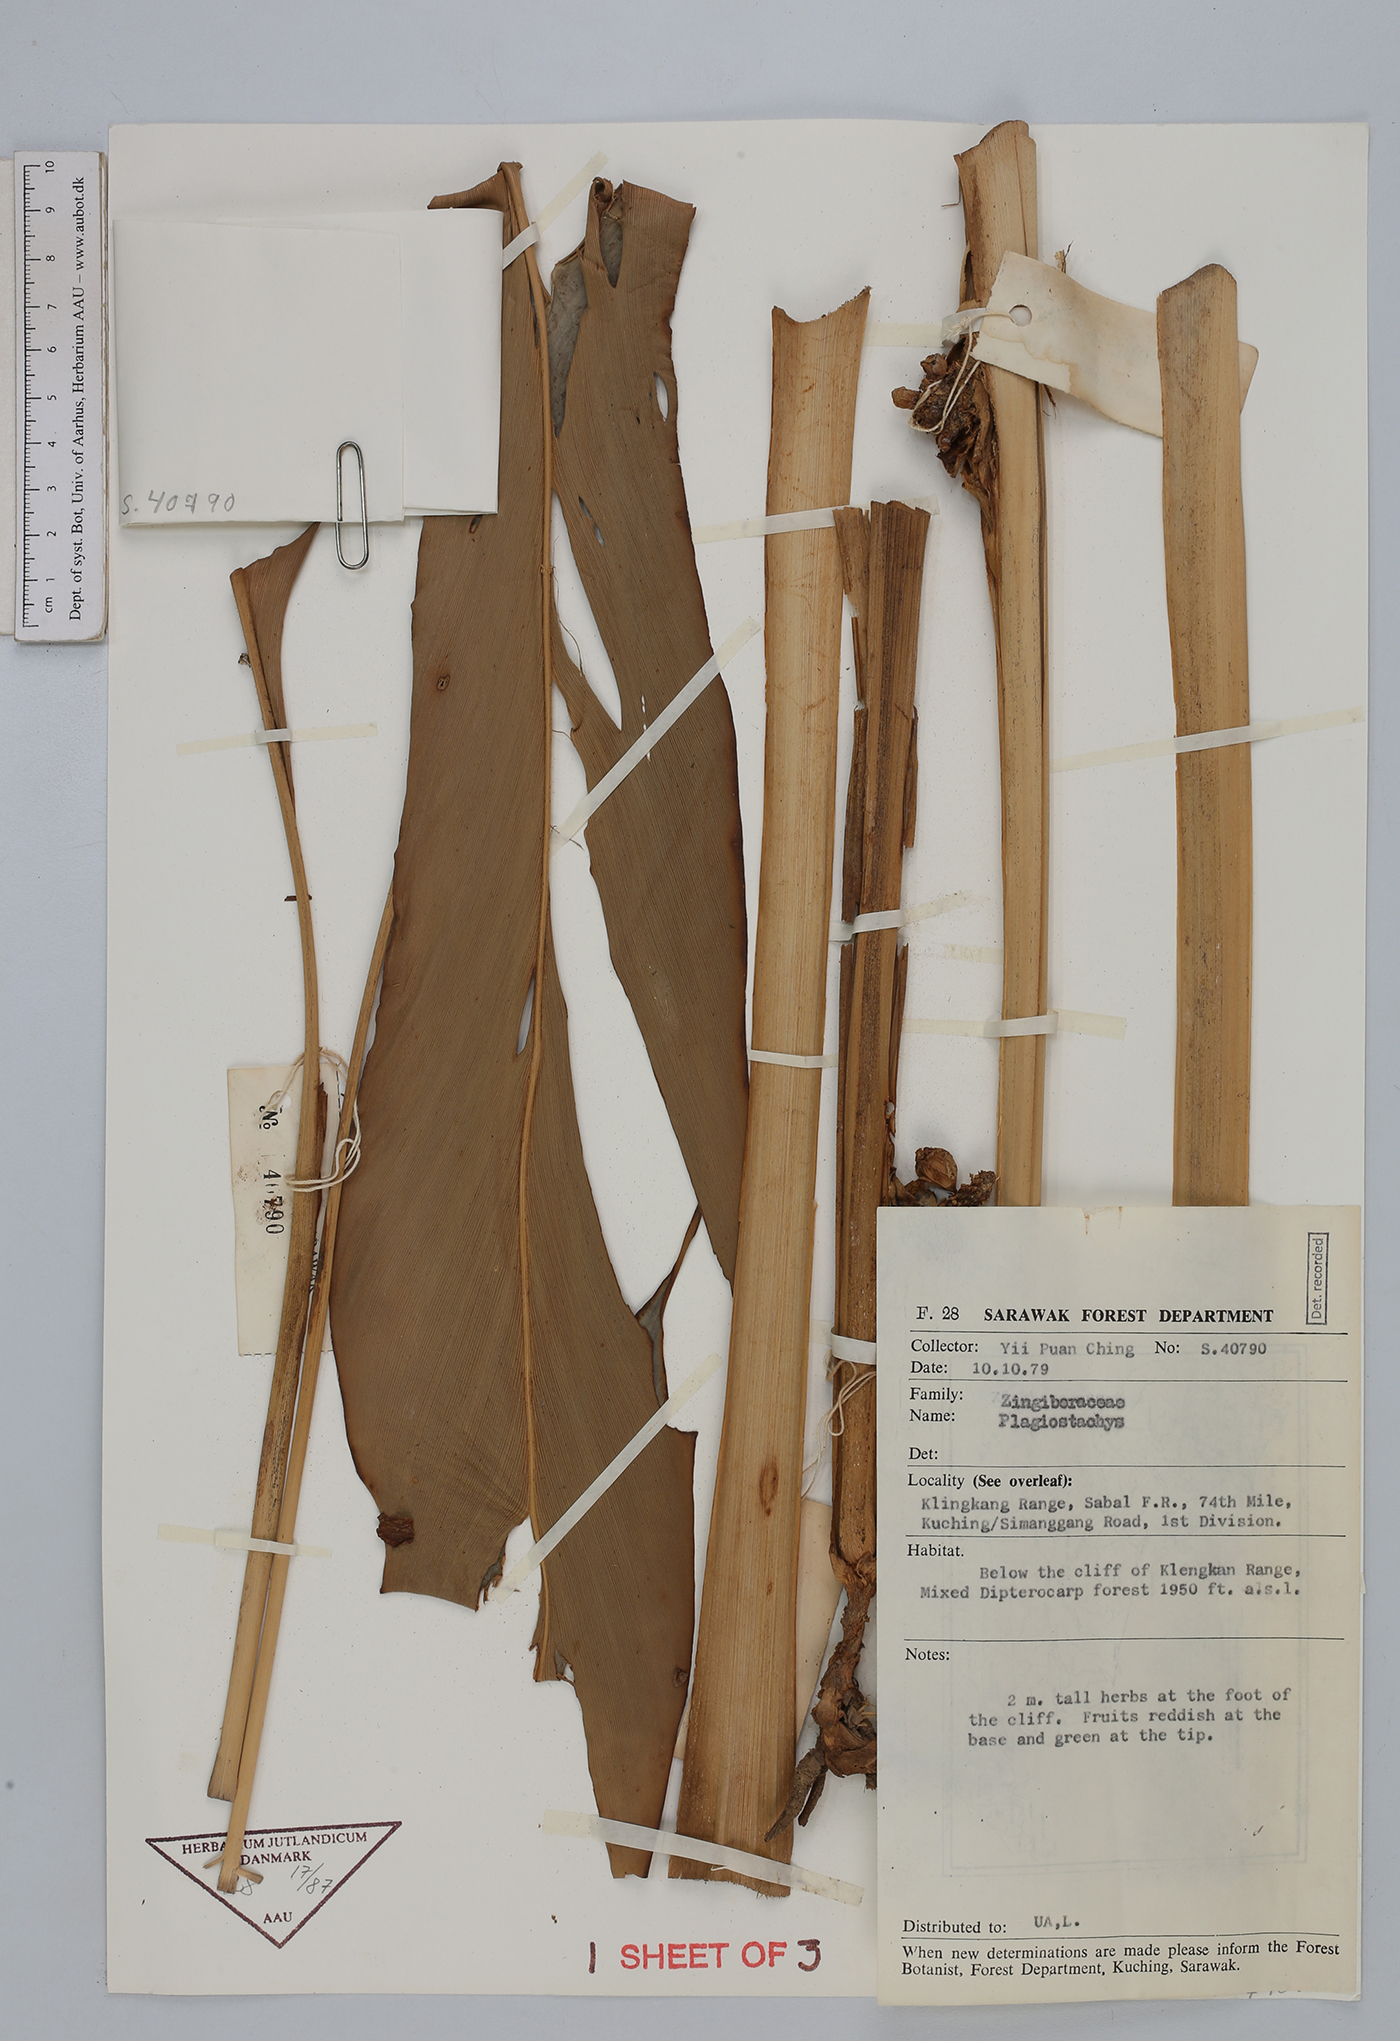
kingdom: Plantae
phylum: Tracheophyta
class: Liliopsida
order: Zingiberales
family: Zingiberaceae
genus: Plagiostachys
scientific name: Plagiostachys
